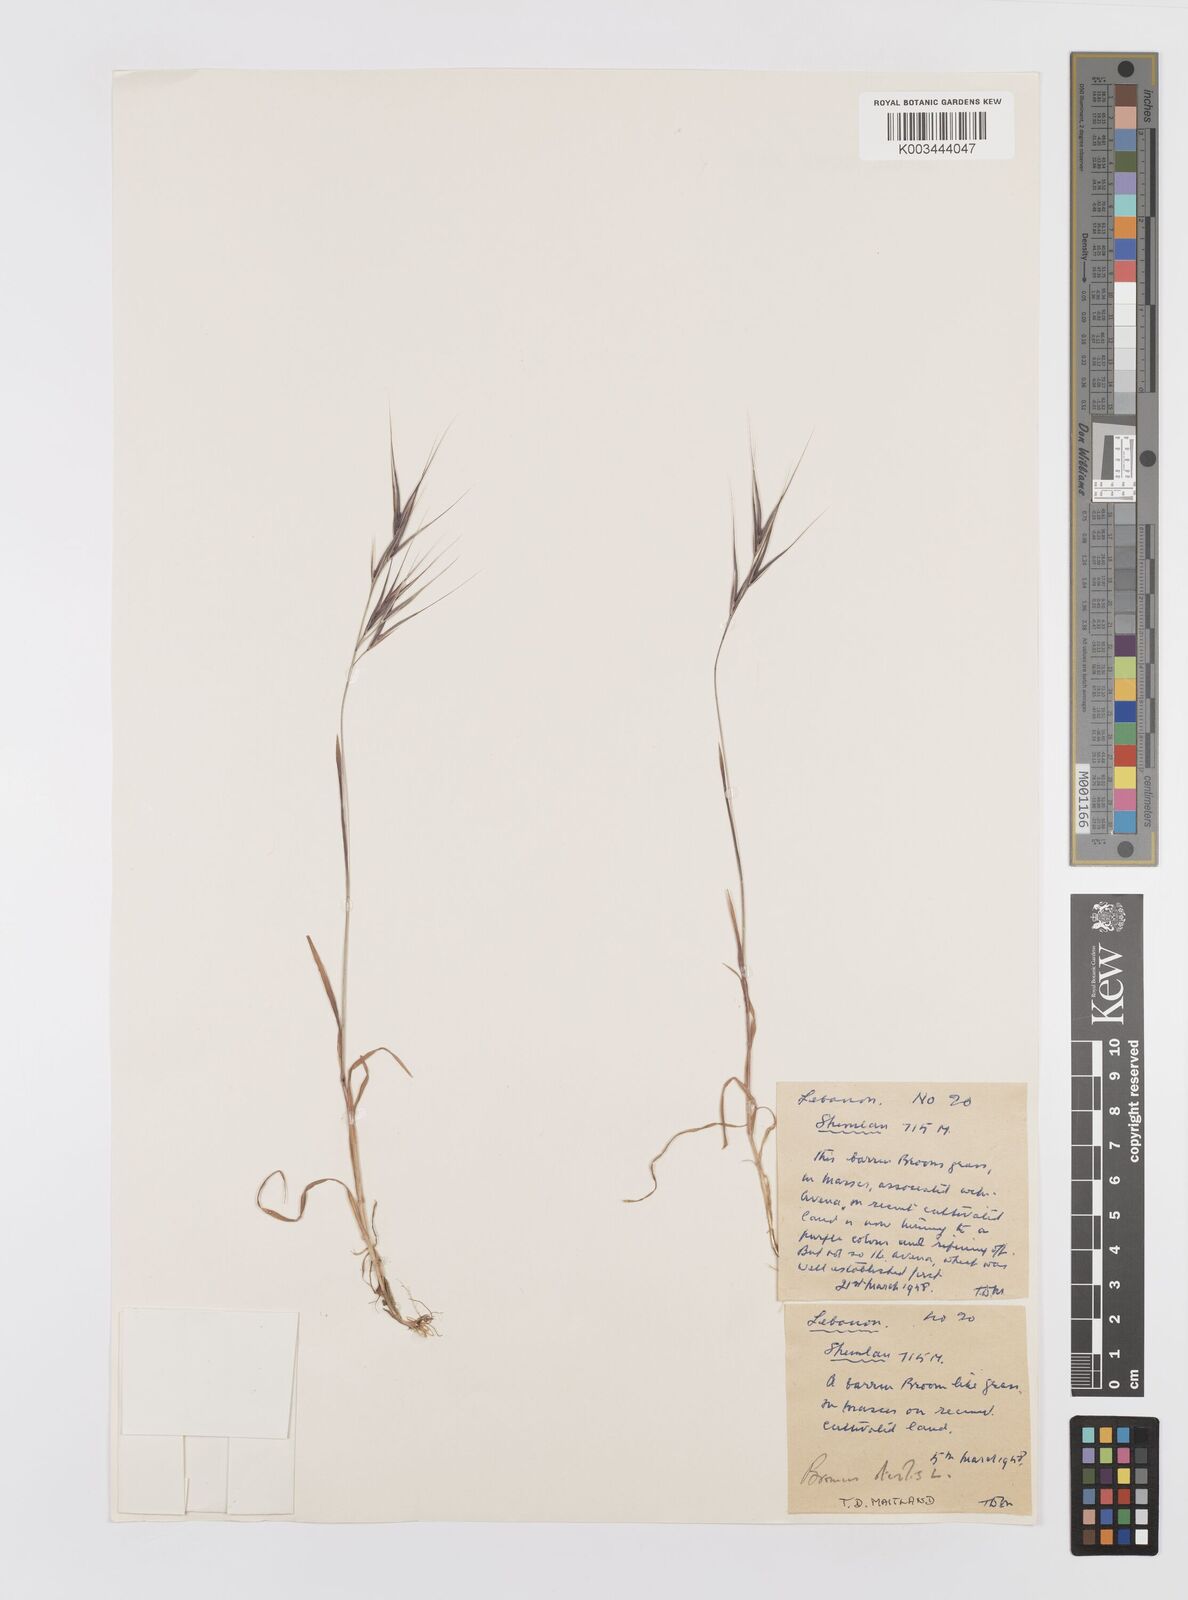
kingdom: Plantae
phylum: Tracheophyta
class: Liliopsida
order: Poales
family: Poaceae
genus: Bromus
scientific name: Bromus sterilis
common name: Poverty brome
